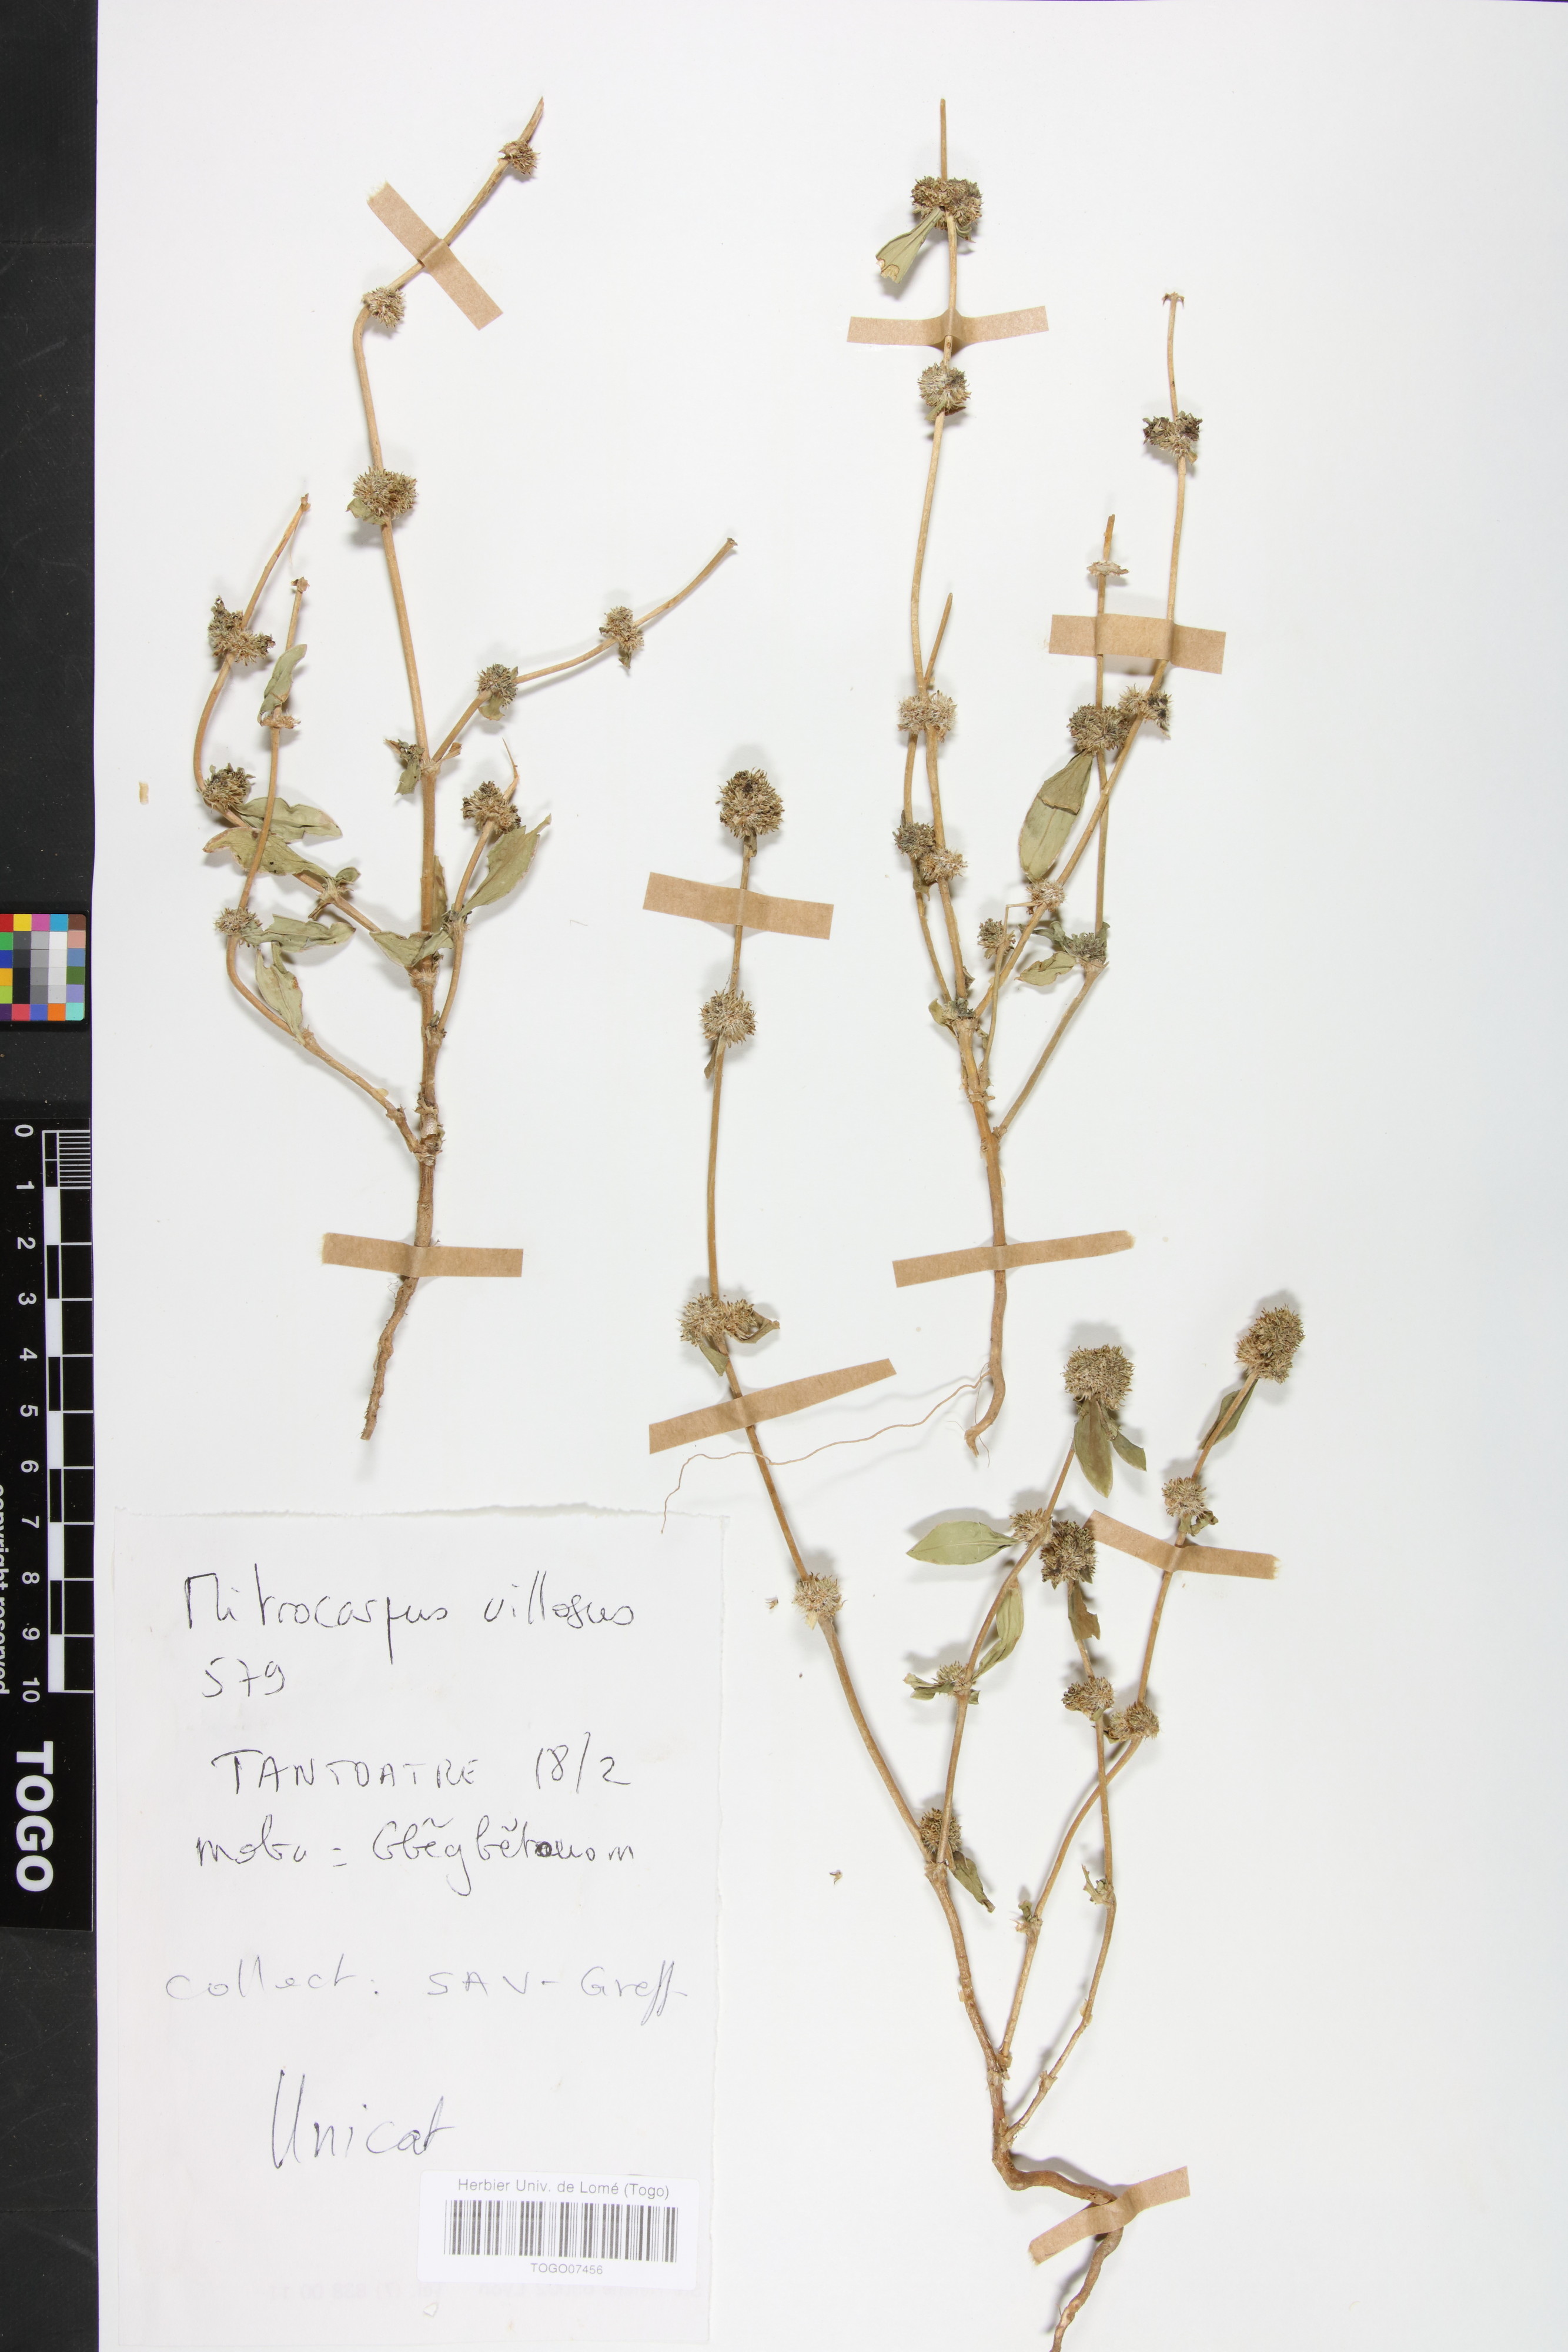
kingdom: Plantae
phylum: Tracheophyta
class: Magnoliopsida
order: Gentianales
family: Rubiaceae
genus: Mitracarpus
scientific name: Mitracarpus hirtus
